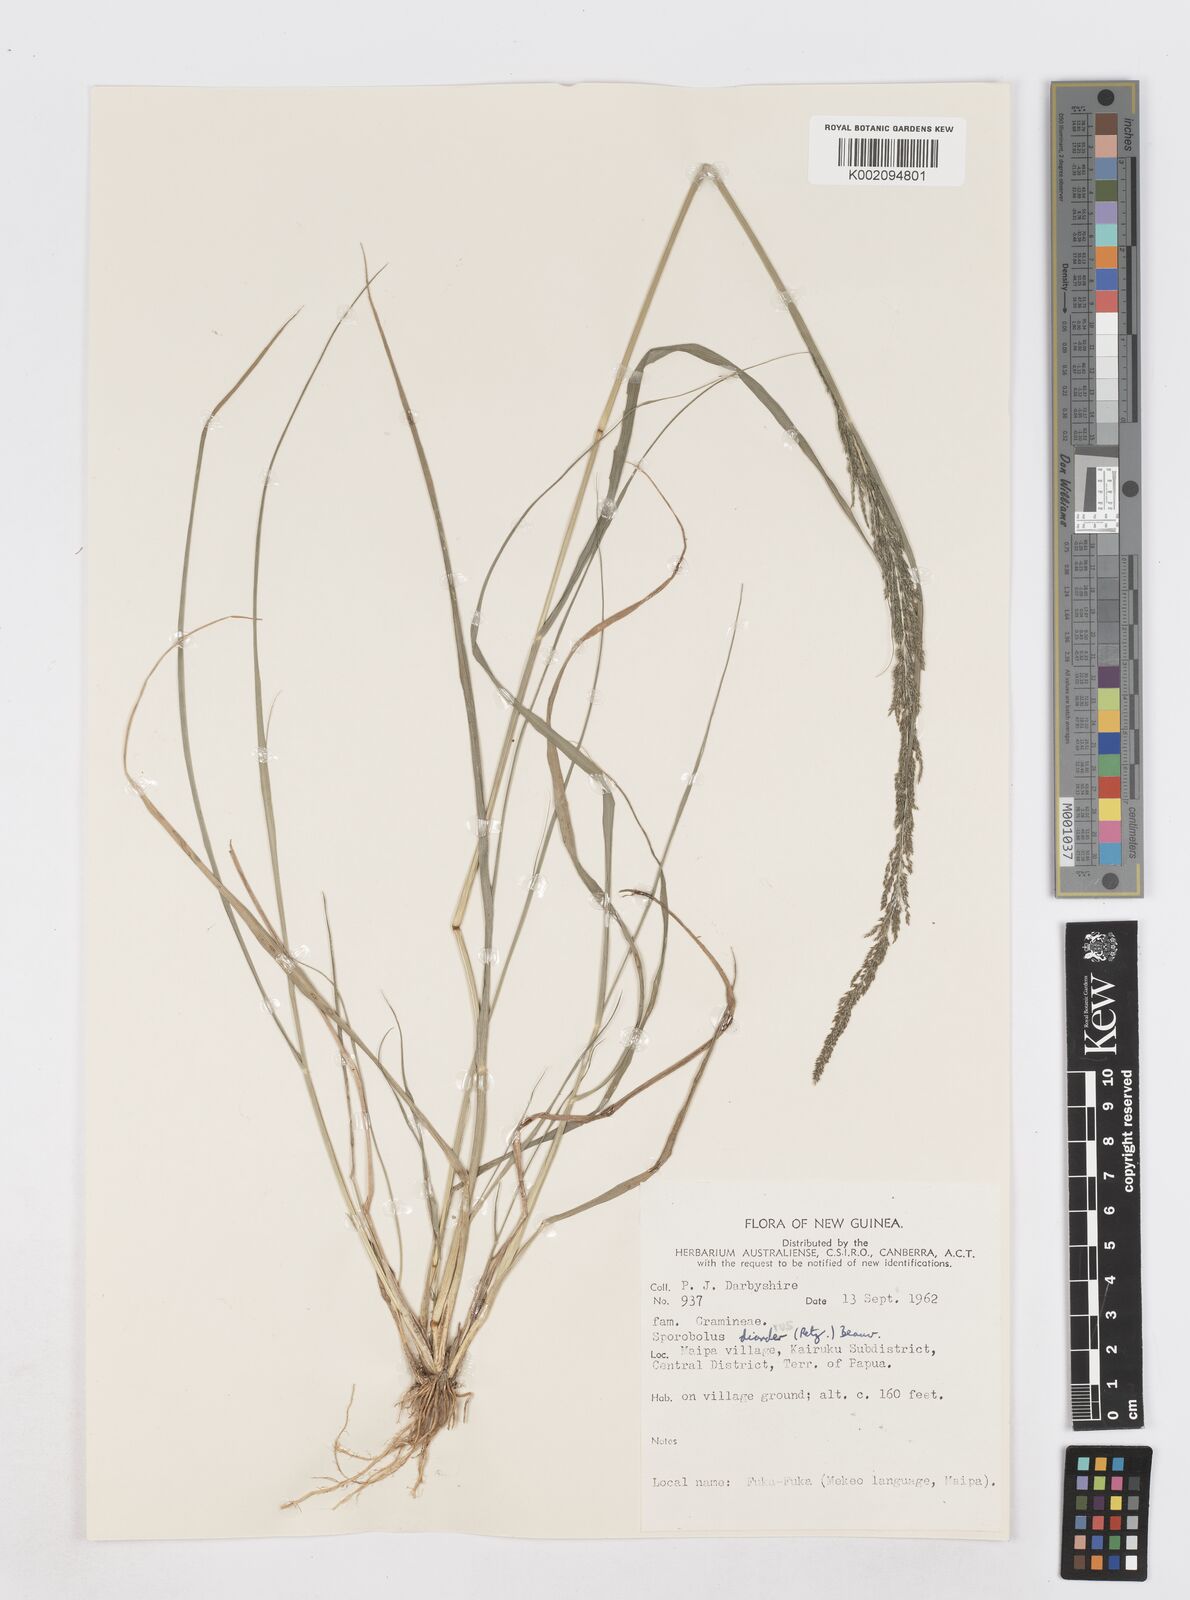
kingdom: Plantae
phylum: Tracheophyta
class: Liliopsida
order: Poales
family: Poaceae
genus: Sporobolus
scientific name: Sporobolus diandrus
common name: Tussock dropseed
